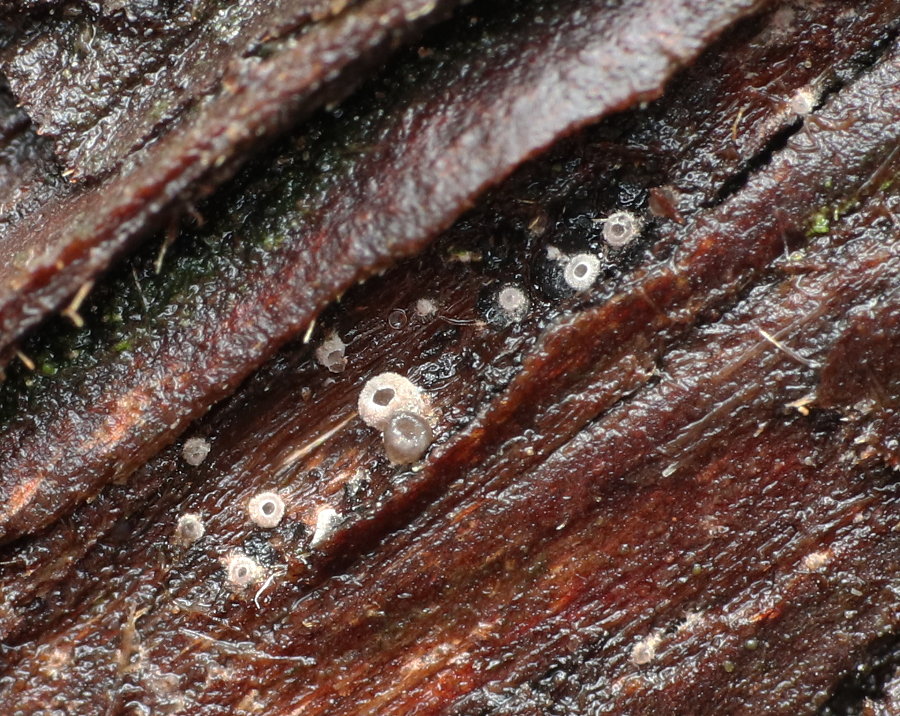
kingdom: Fungi
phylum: Basidiomycota
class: Agaricomycetes
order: Agaricales
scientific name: Agaricales
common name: champignonordenen
